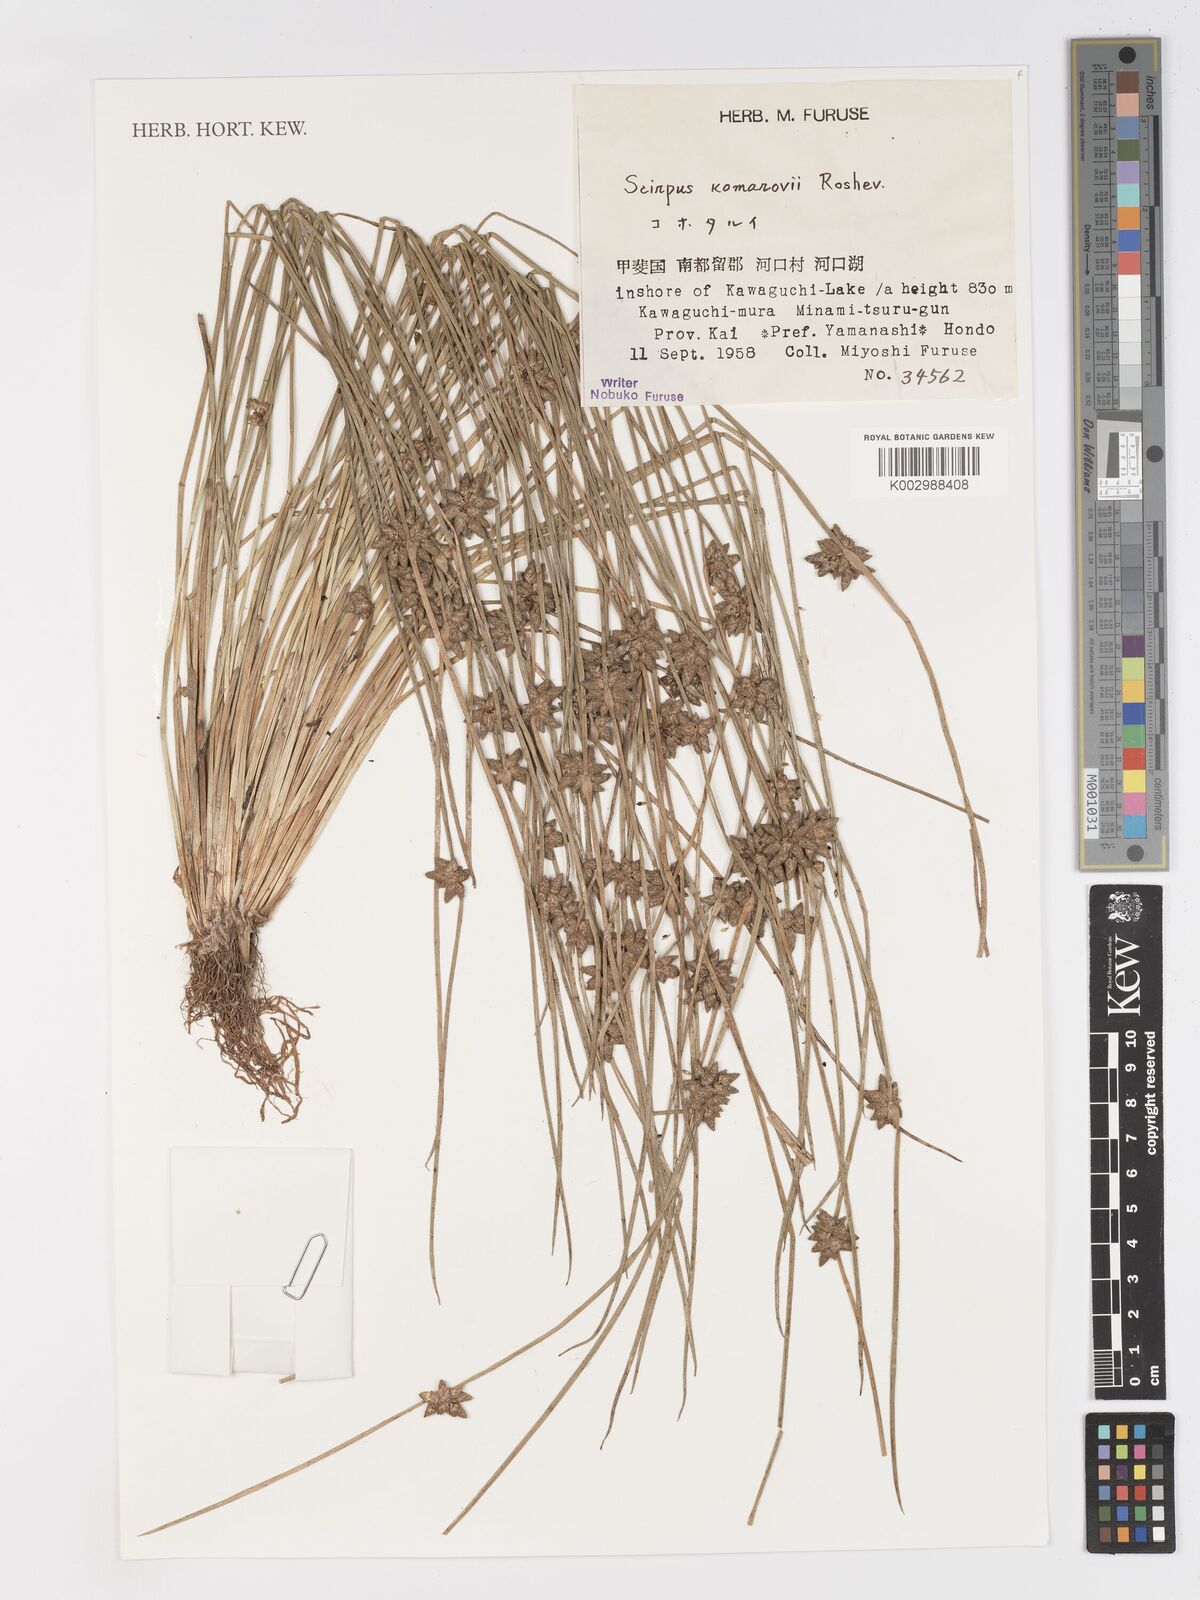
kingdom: Plantae
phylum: Tracheophyta
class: Liliopsida
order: Poales
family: Cyperaceae
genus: Schoenoplectiella
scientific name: Schoenoplectiella komarovii
